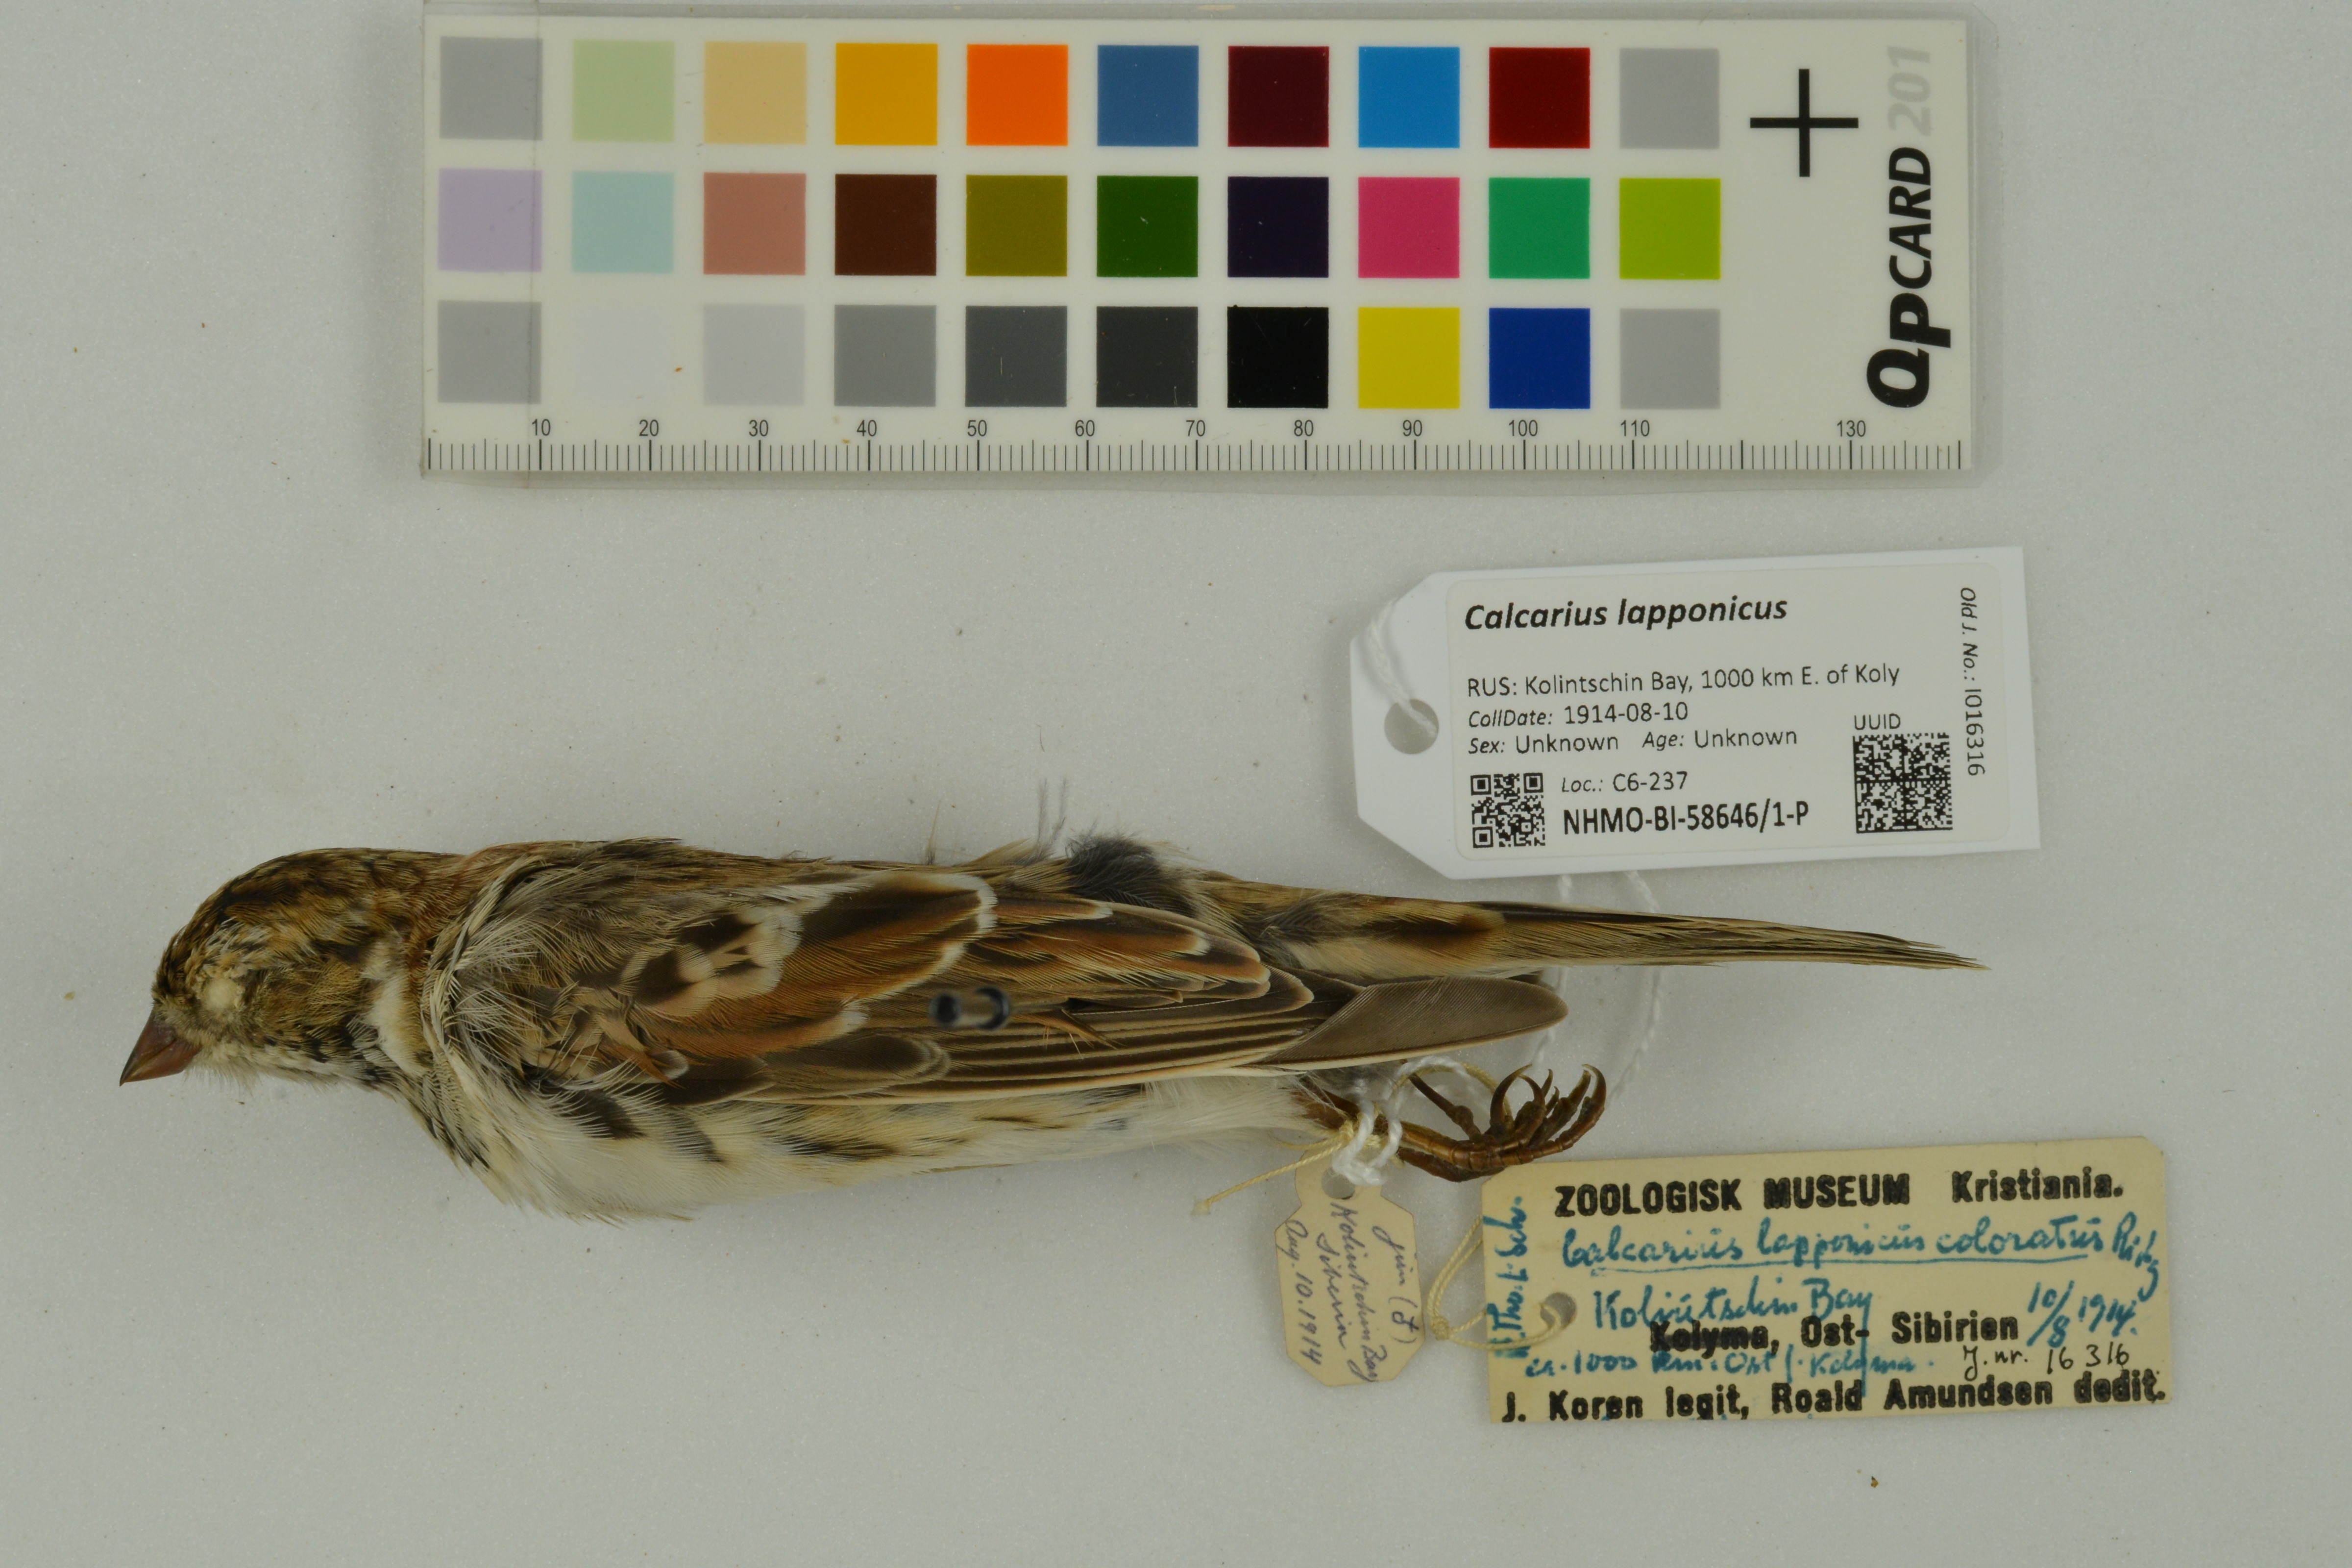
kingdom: Animalia
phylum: Chordata
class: Aves
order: Passeriformes
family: Calcariidae
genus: Calcarius
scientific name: Calcarius lapponicus
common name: Lapland longspur
